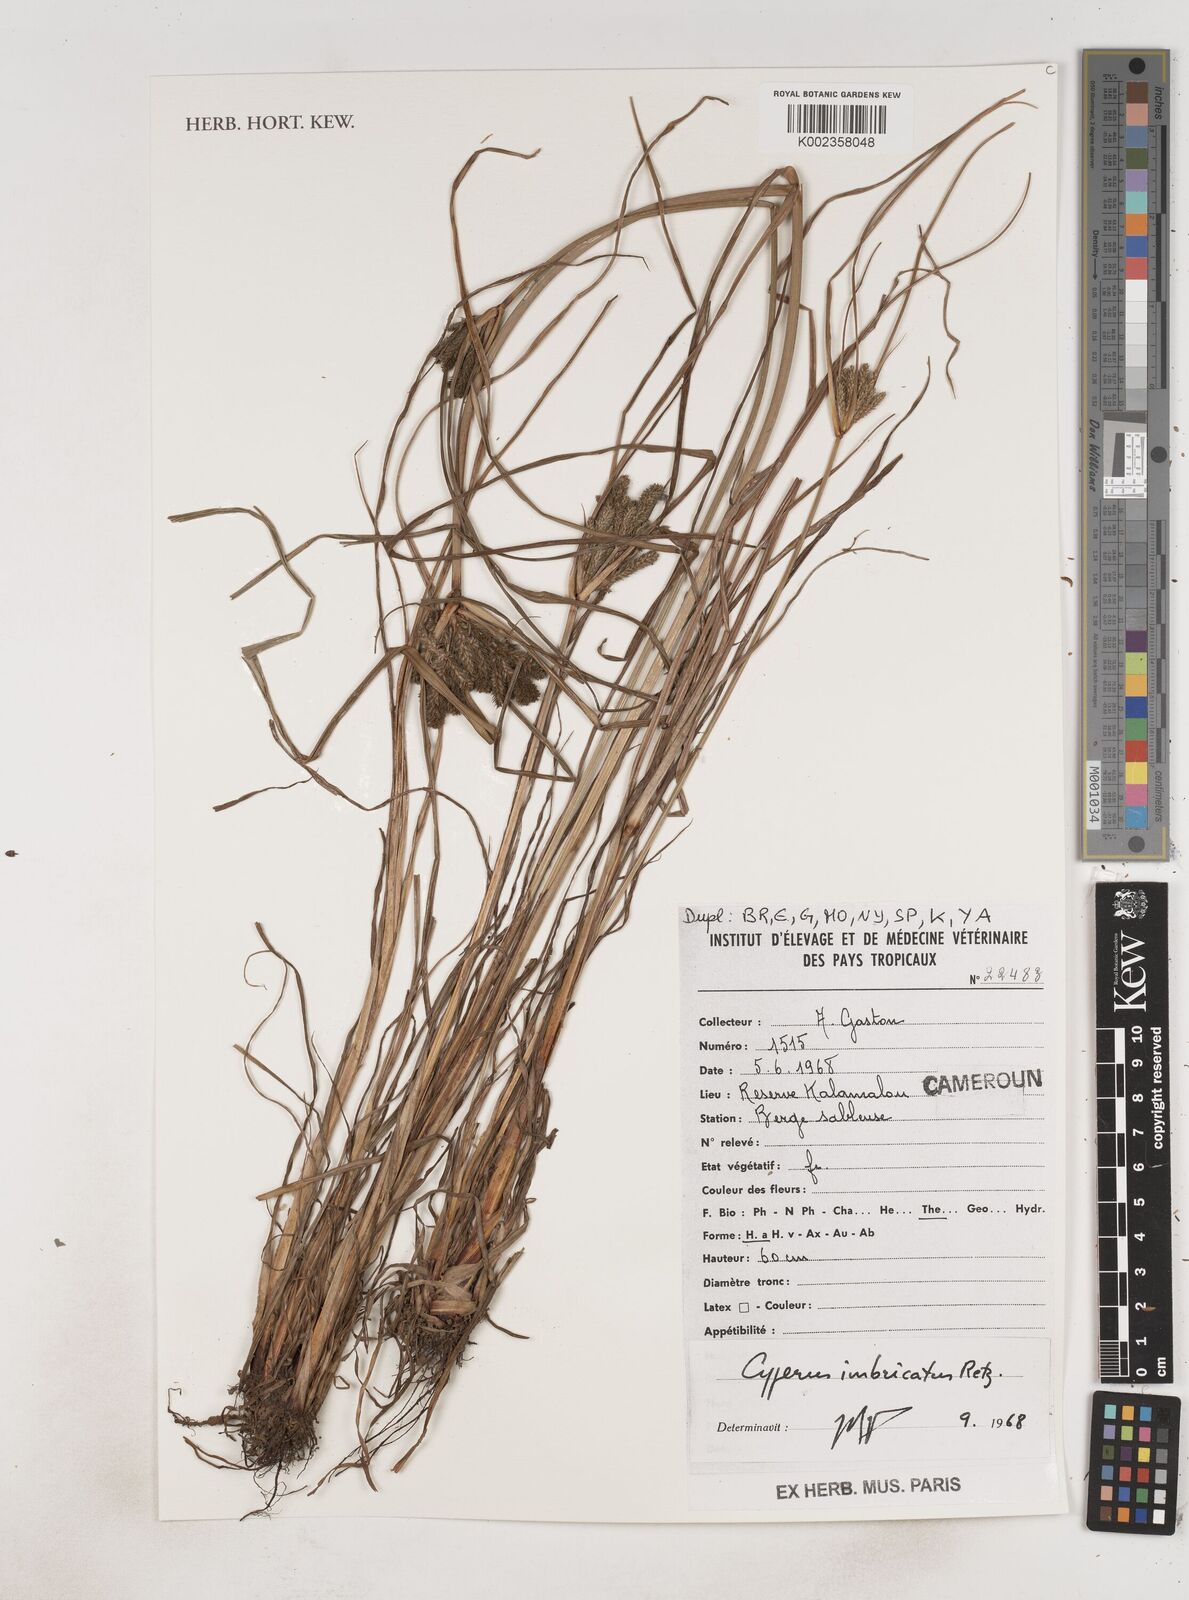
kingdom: Plantae
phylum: Tracheophyta
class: Liliopsida
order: Poales
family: Cyperaceae
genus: Cyperus
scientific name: Cyperus imbricatus
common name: Shingle flatsedge
